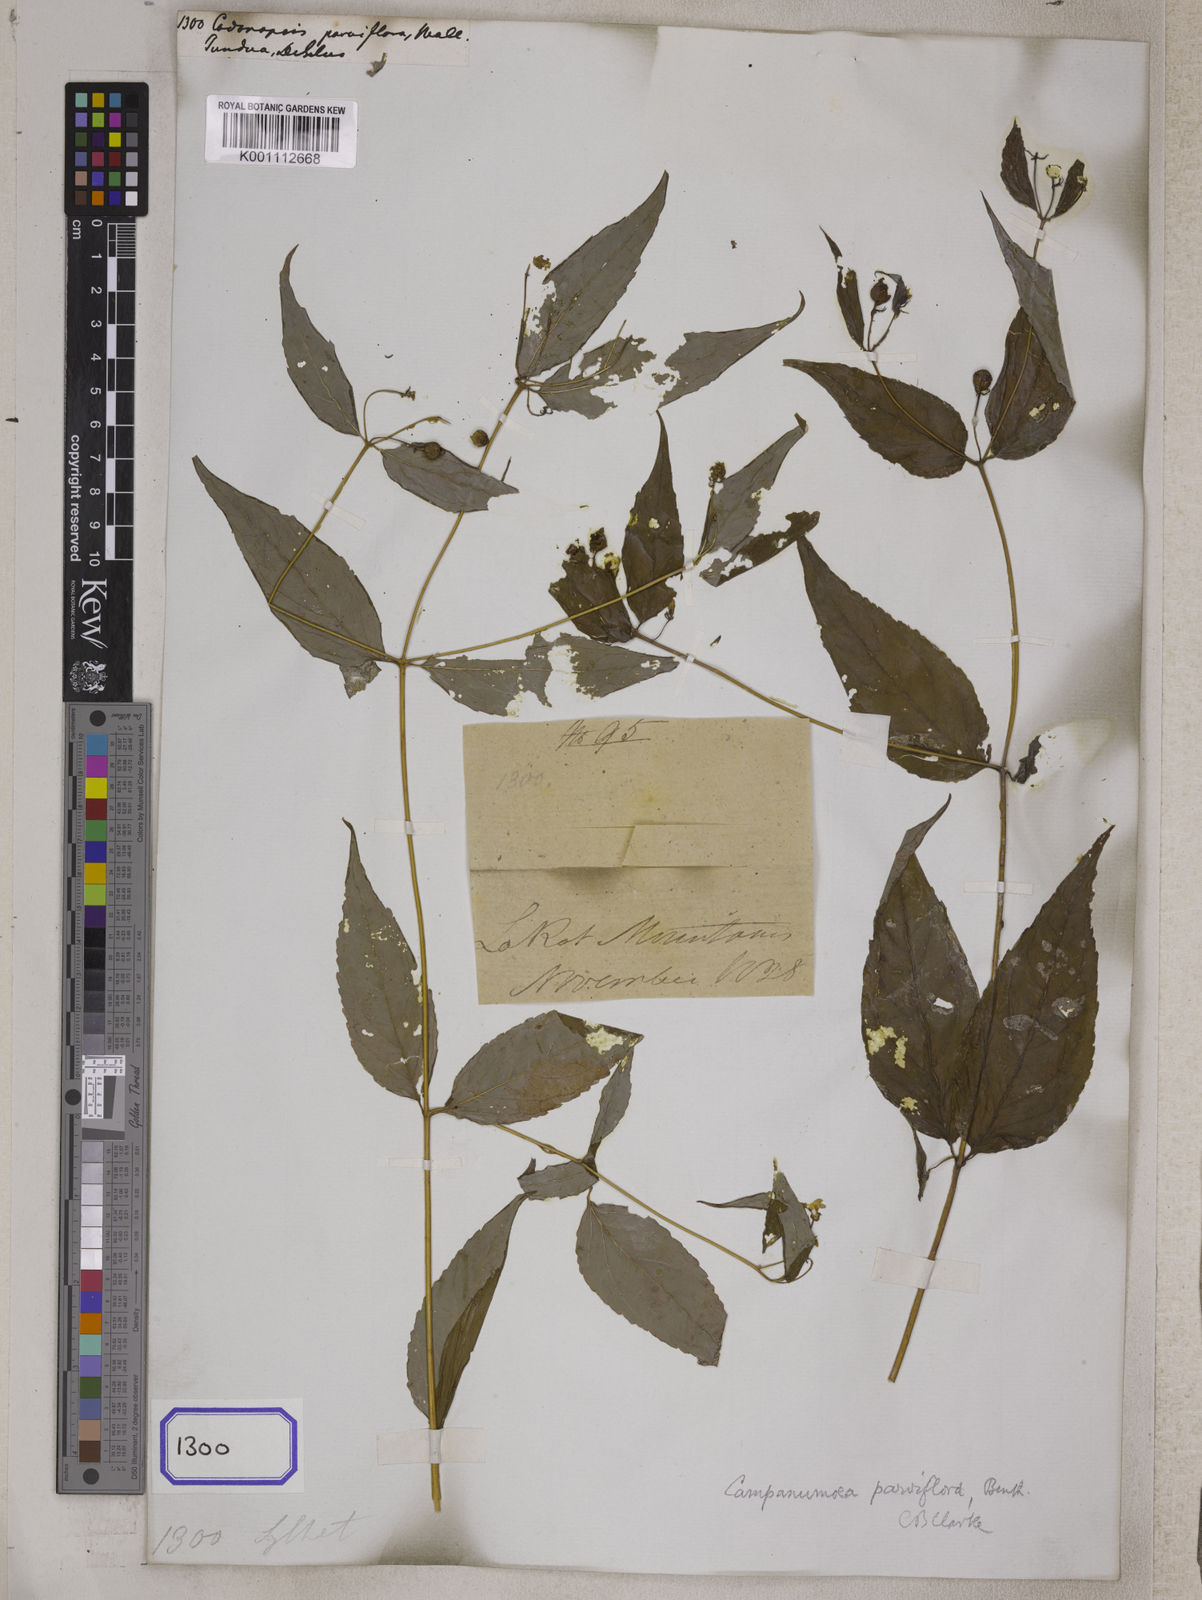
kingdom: Plantae
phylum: Tracheophyta
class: Magnoliopsida
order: Asterales
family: Campanulaceae
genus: Codonopsis
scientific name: Codonopsis
